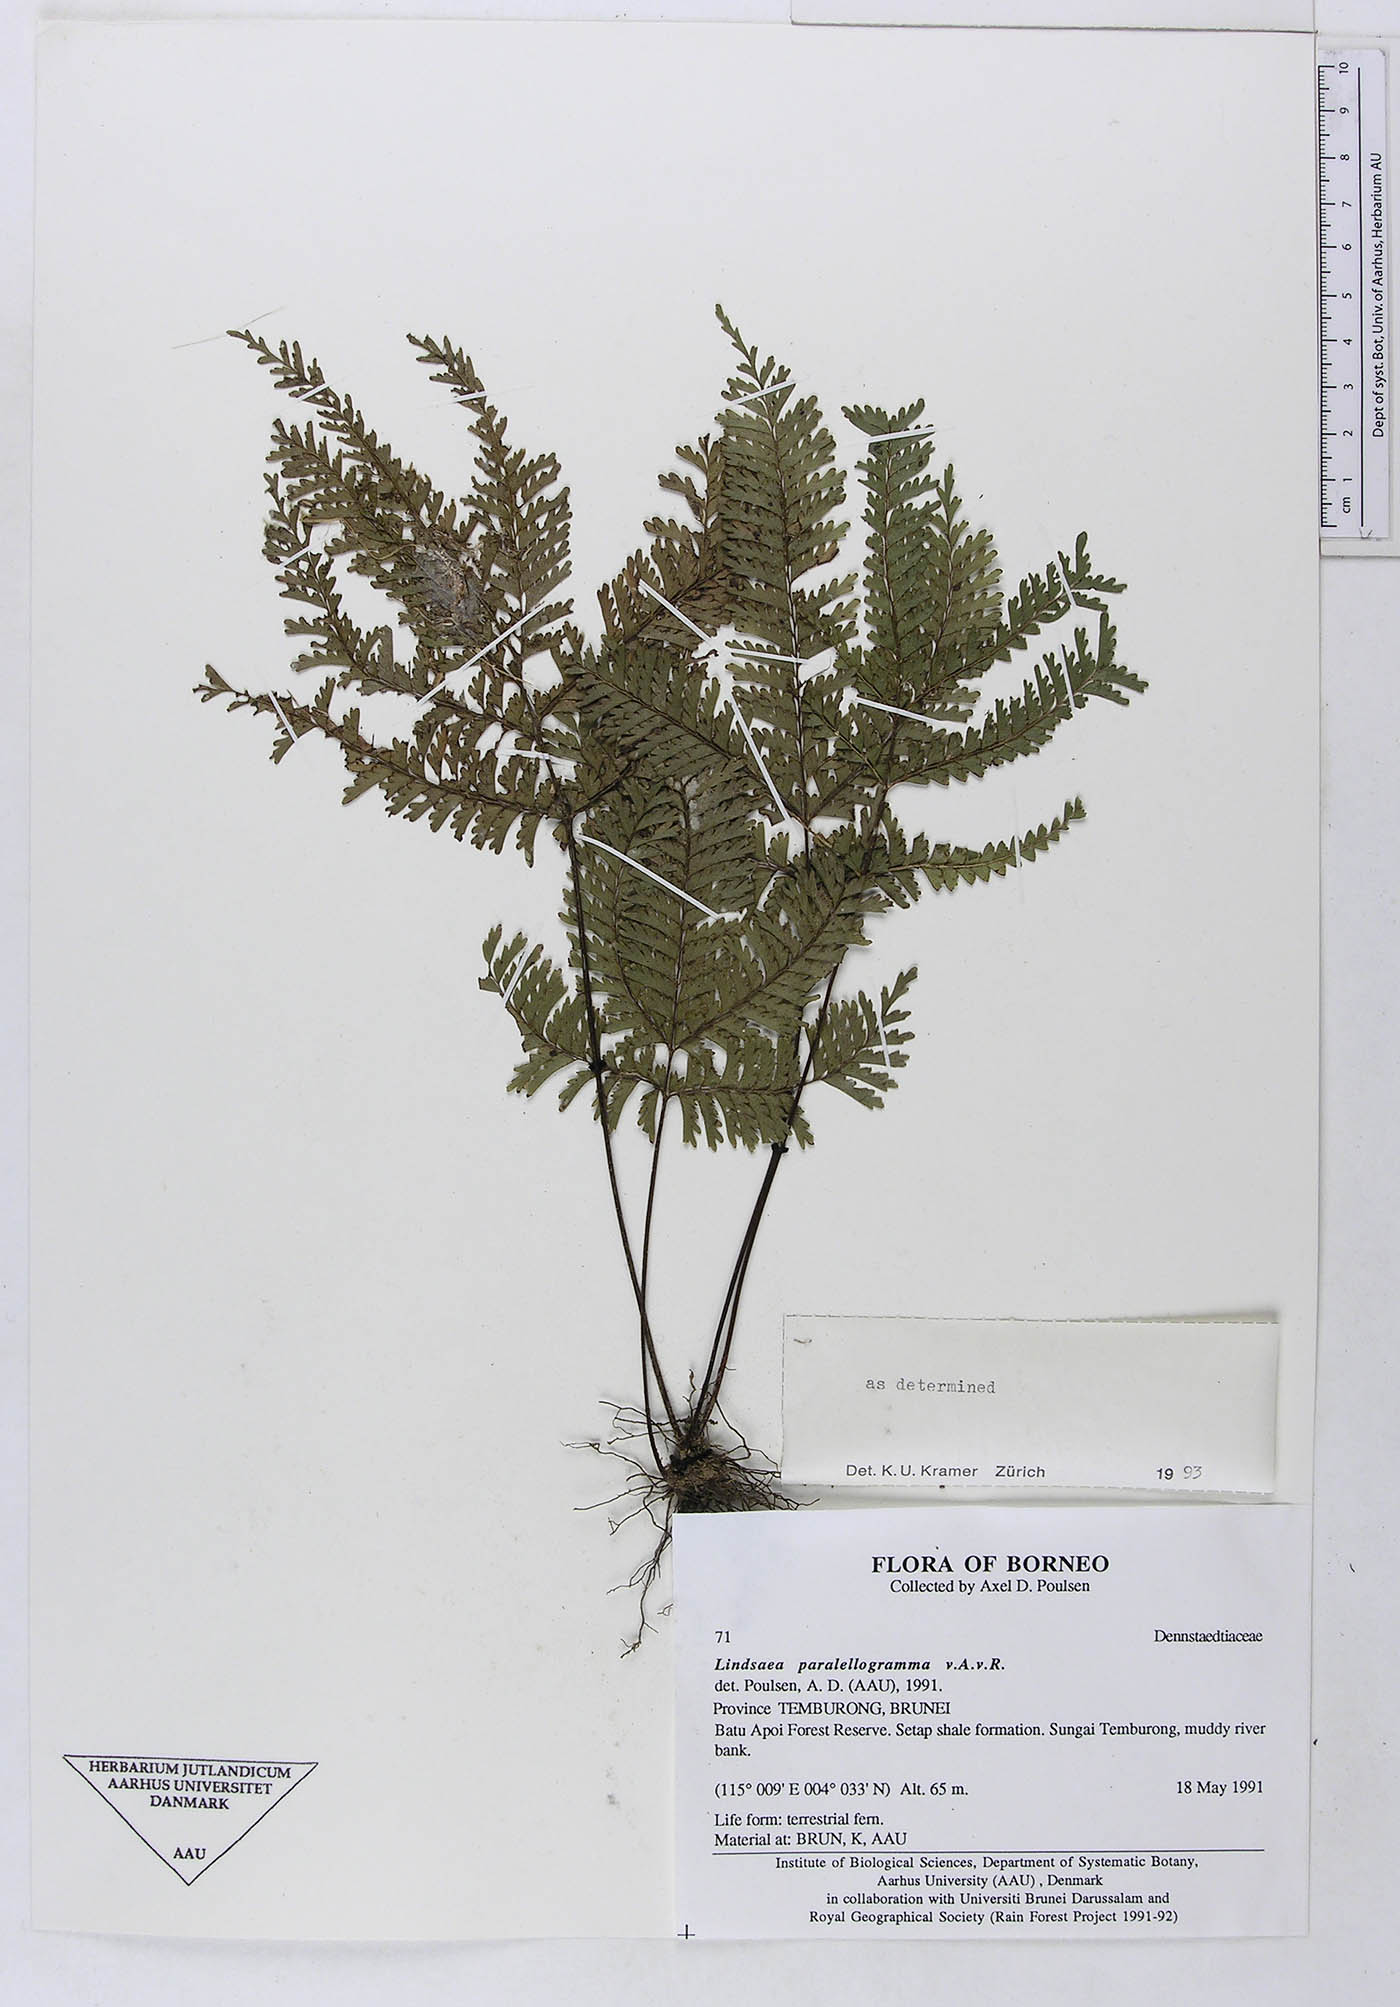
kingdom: Plantae
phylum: Tracheophyta
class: Polypodiopsida
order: Polypodiales
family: Dennstaedtiaceae
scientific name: Dennstaedtiaceae
